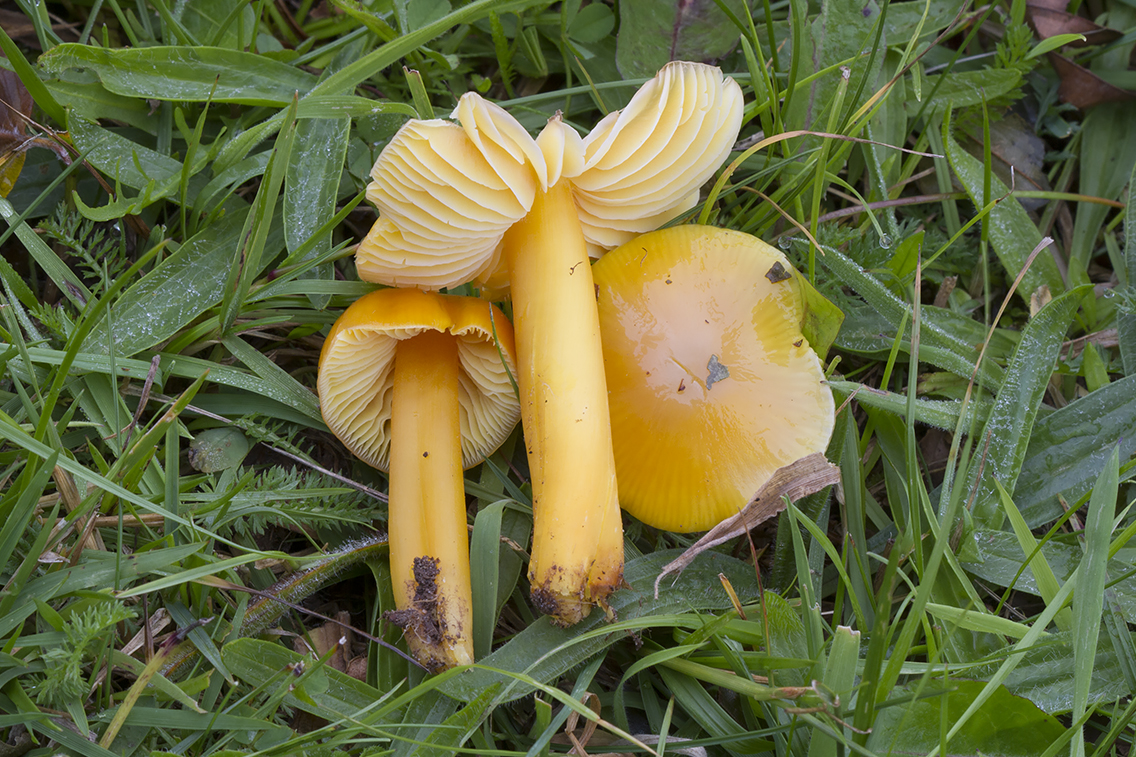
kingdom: Fungi
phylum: Basidiomycota
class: Agaricomycetes
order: Agaricales
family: Hygrophoraceae
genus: Hygrocybe
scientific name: Hygrocybe acutoconica
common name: spidspuklet vokshat
